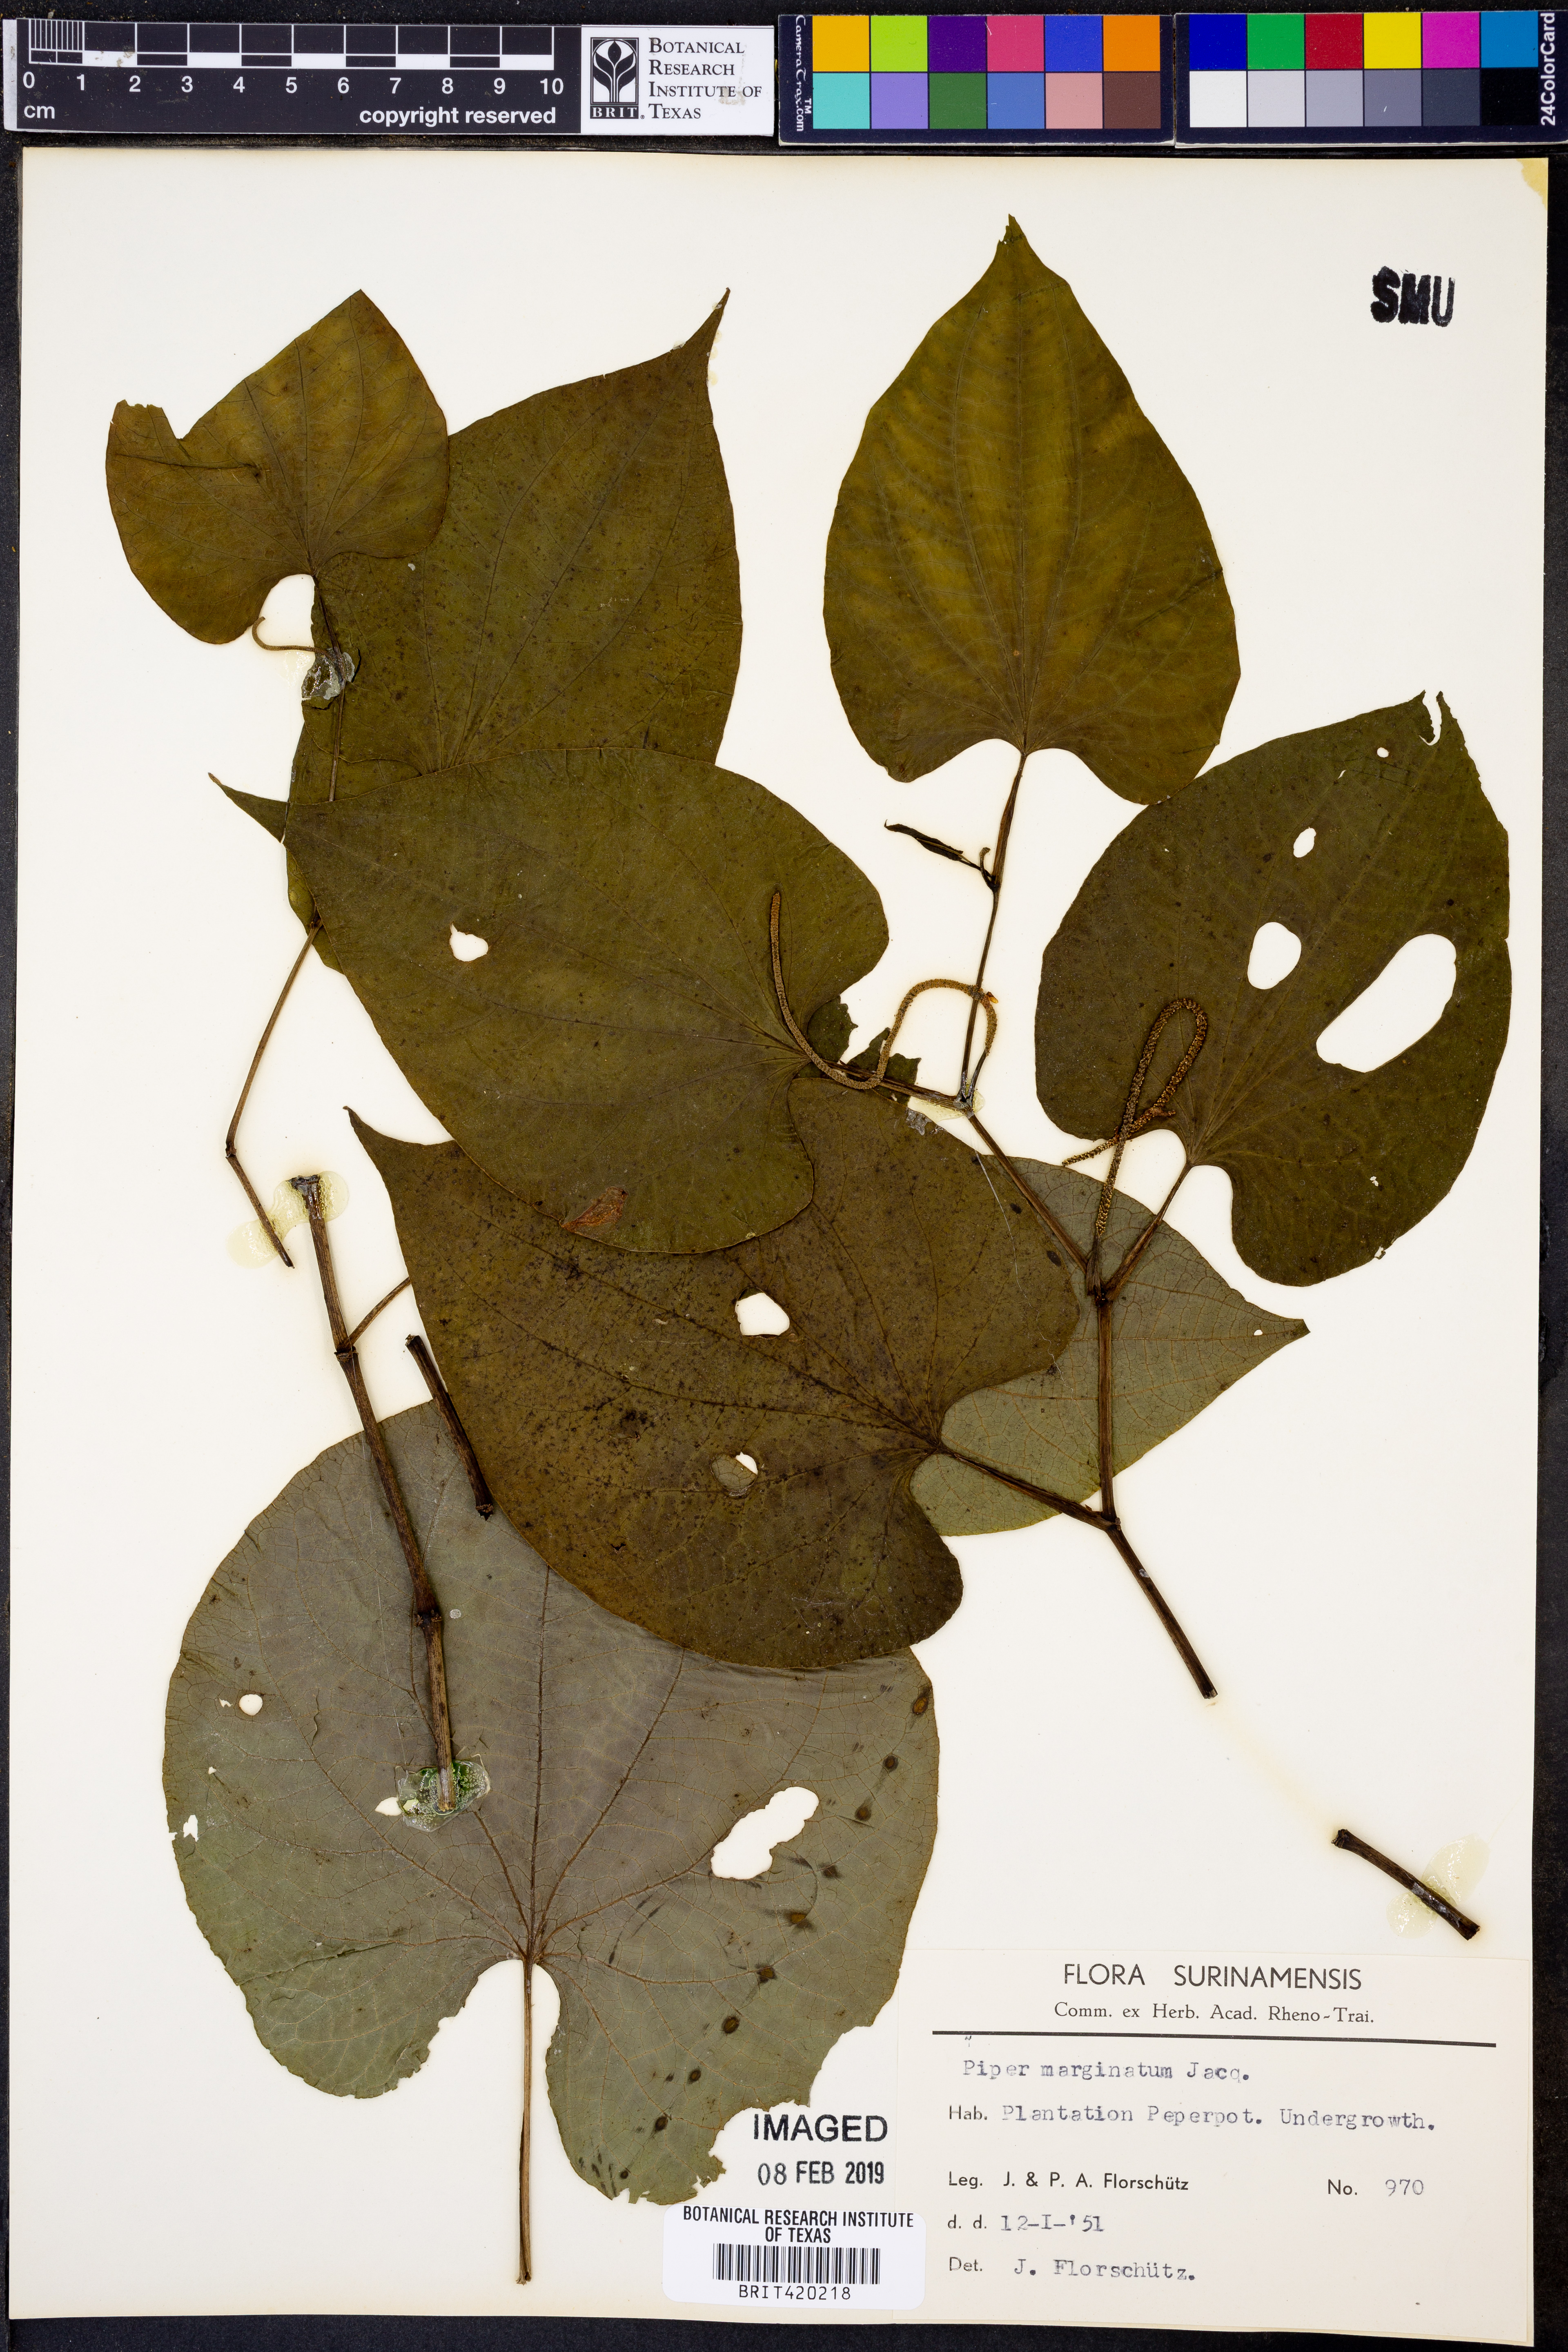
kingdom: Plantae
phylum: Tracheophyta
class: Magnoliopsida
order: Piperales
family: Piperaceae
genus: Piper
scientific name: Piper marginatum
